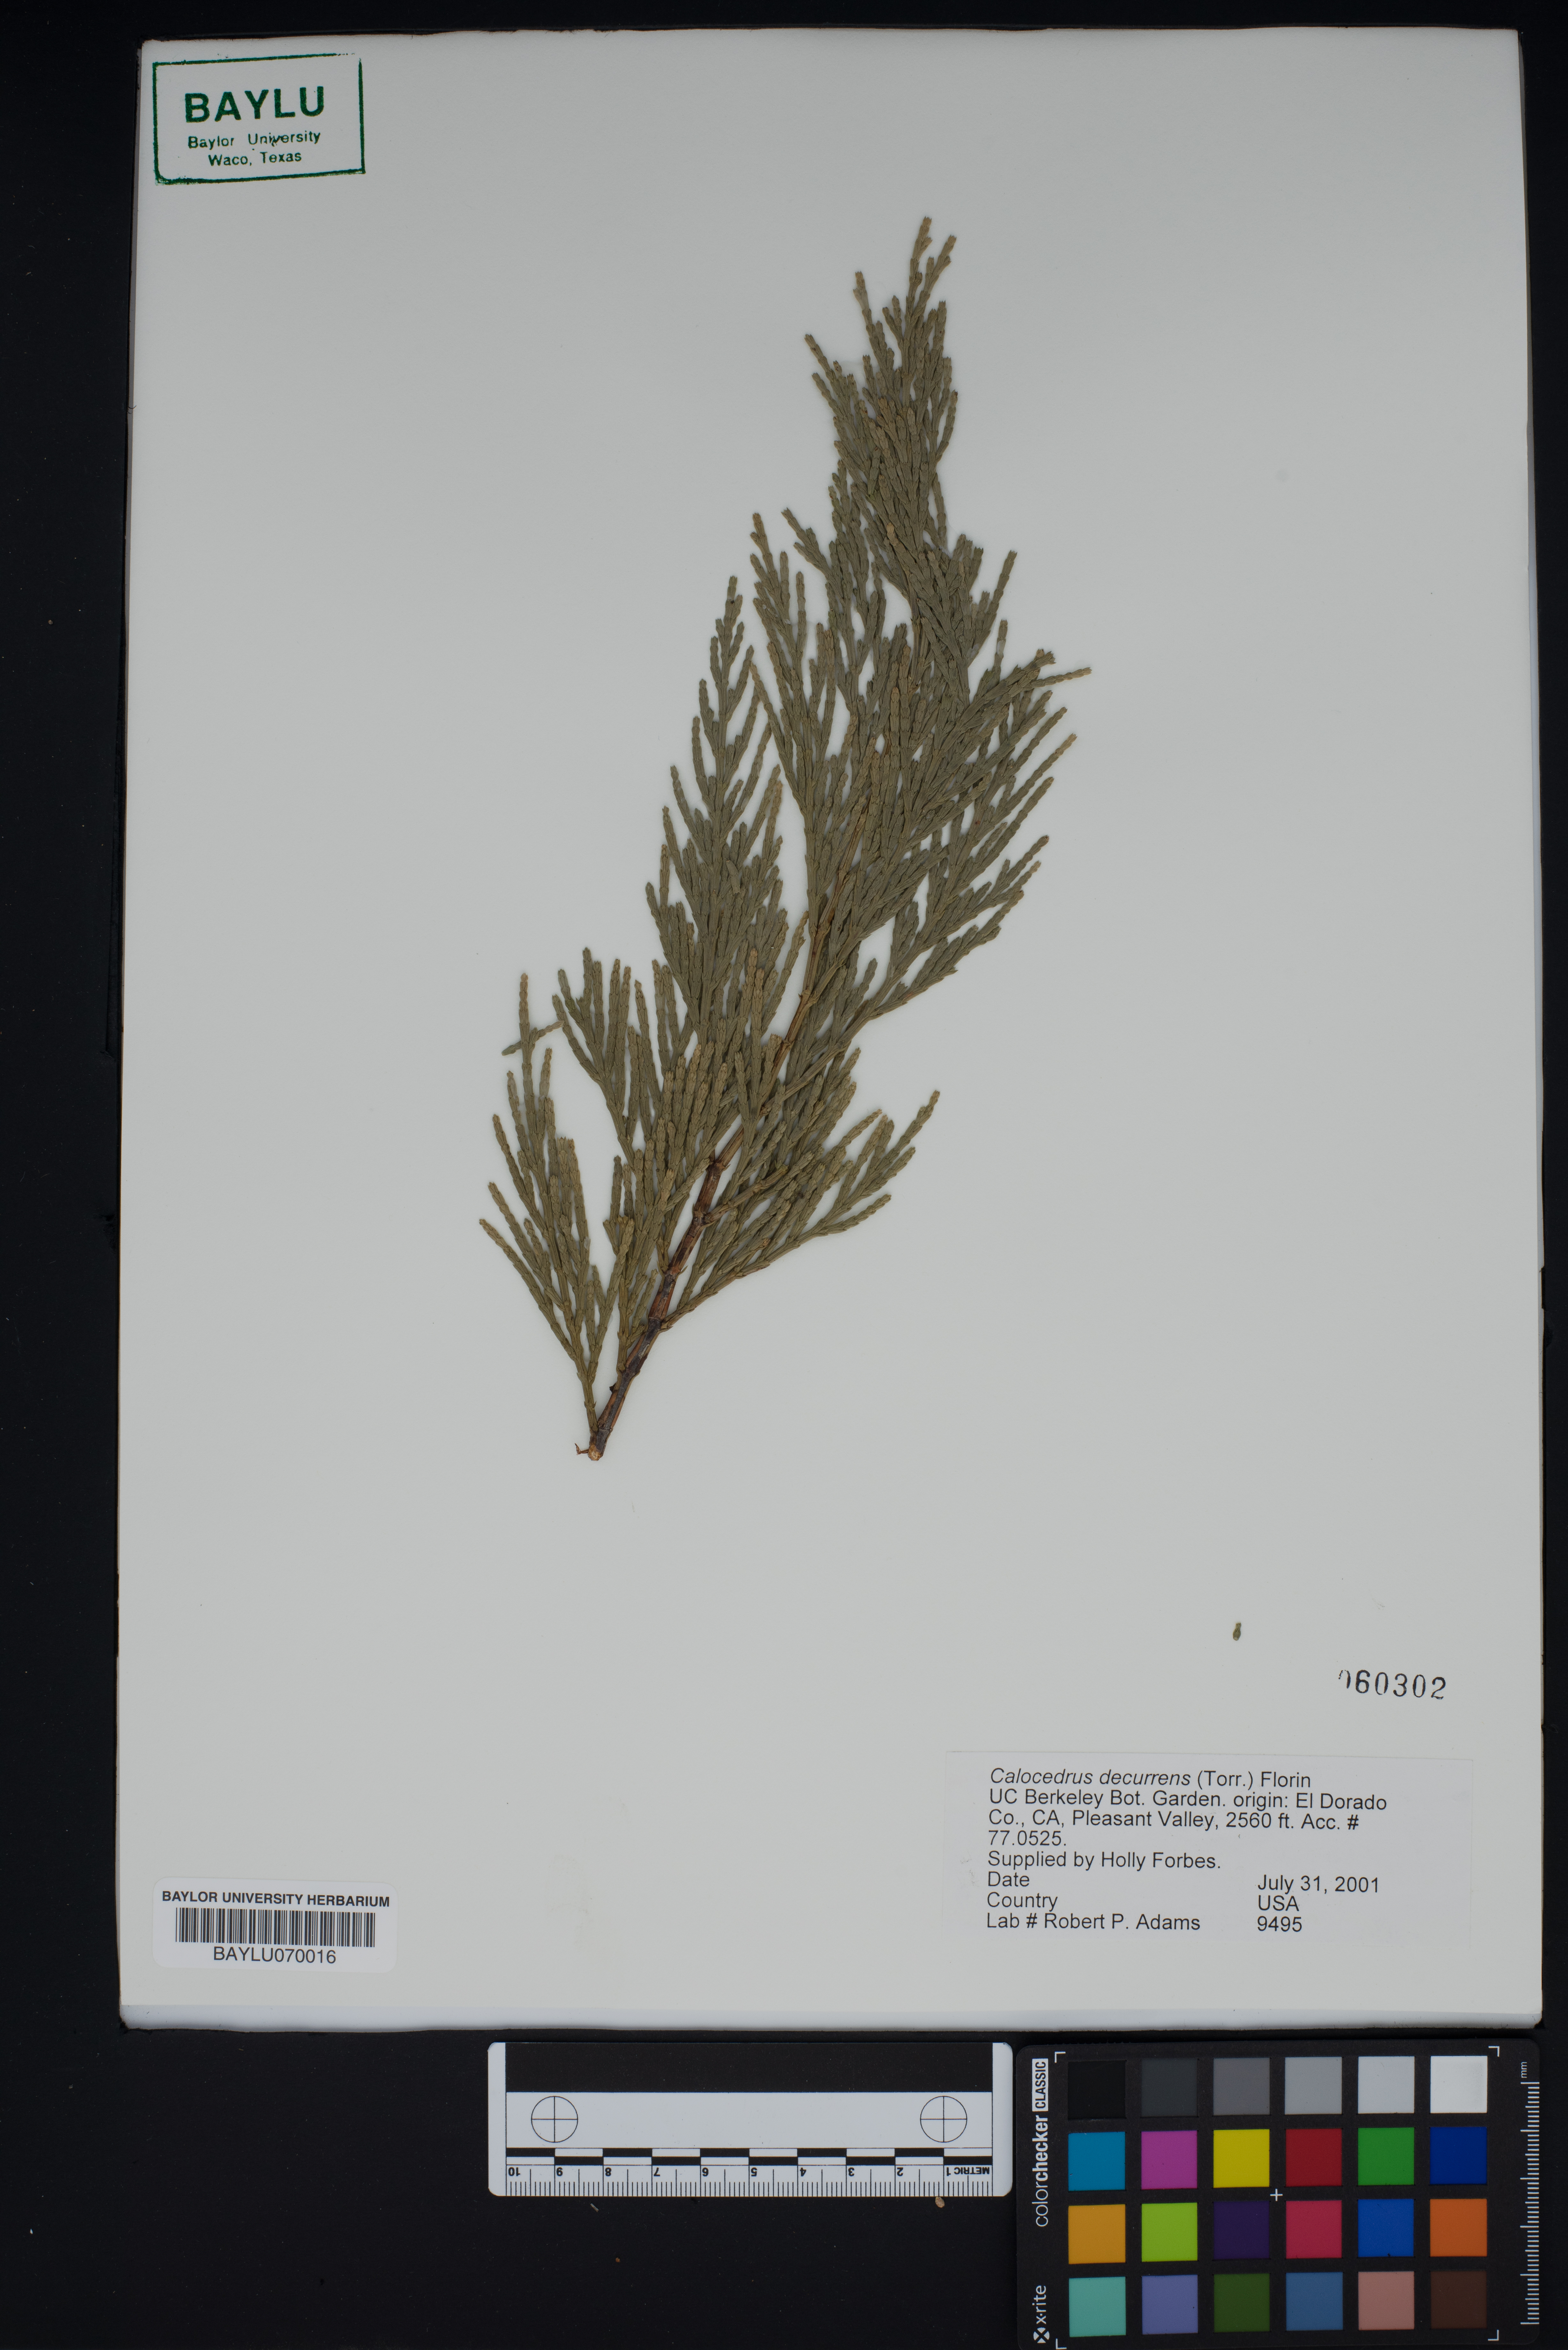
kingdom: Plantae
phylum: Tracheophyta
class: Pinopsida
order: Pinales
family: Cupressaceae
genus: Calocedrus
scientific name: Calocedrus decurrens
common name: Californian incense-cedar
